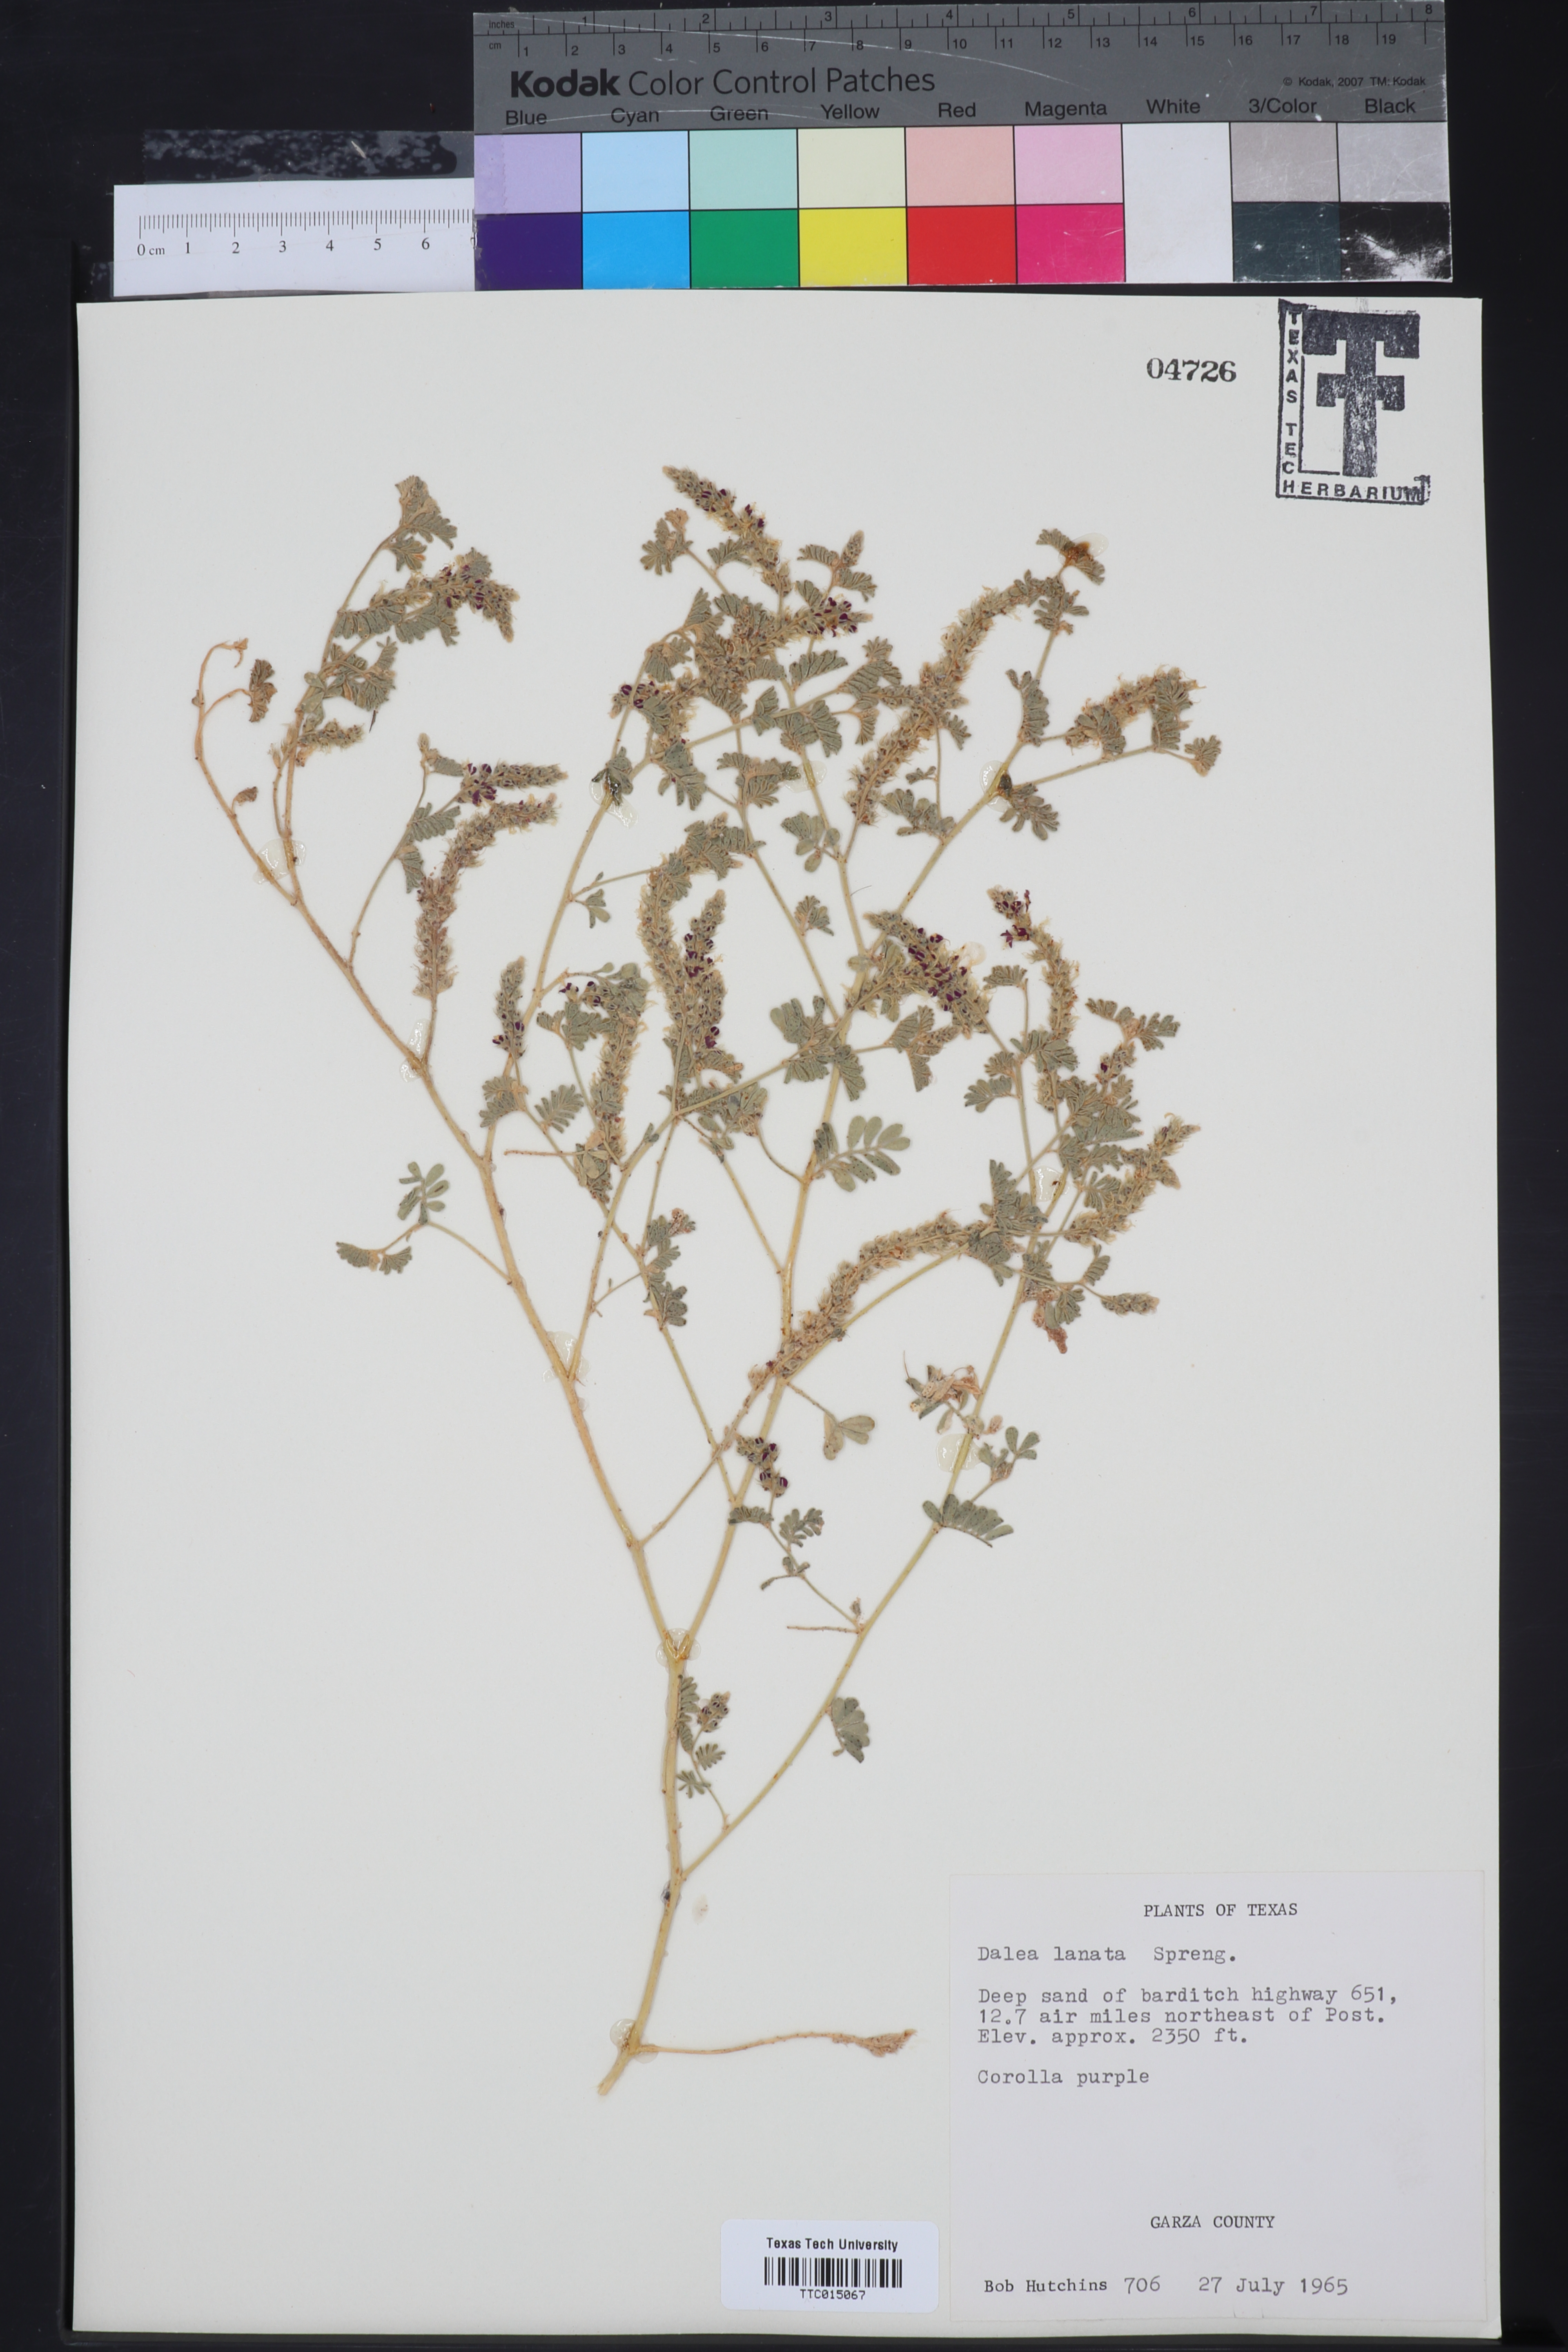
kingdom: Plantae
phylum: Tracheophyta
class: Magnoliopsida
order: Fabales
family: Fabaceae
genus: Dalea
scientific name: Dalea lanata
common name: Woolly dalea
